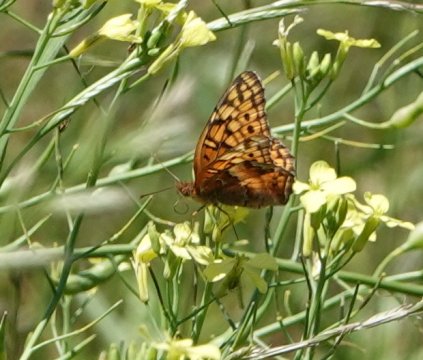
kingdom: Animalia
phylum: Arthropoda
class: Insecta
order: Lepidoptera
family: Nymphalidae
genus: Euptoieta
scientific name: Euptoieta claudia
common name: Variegated Fritillary
